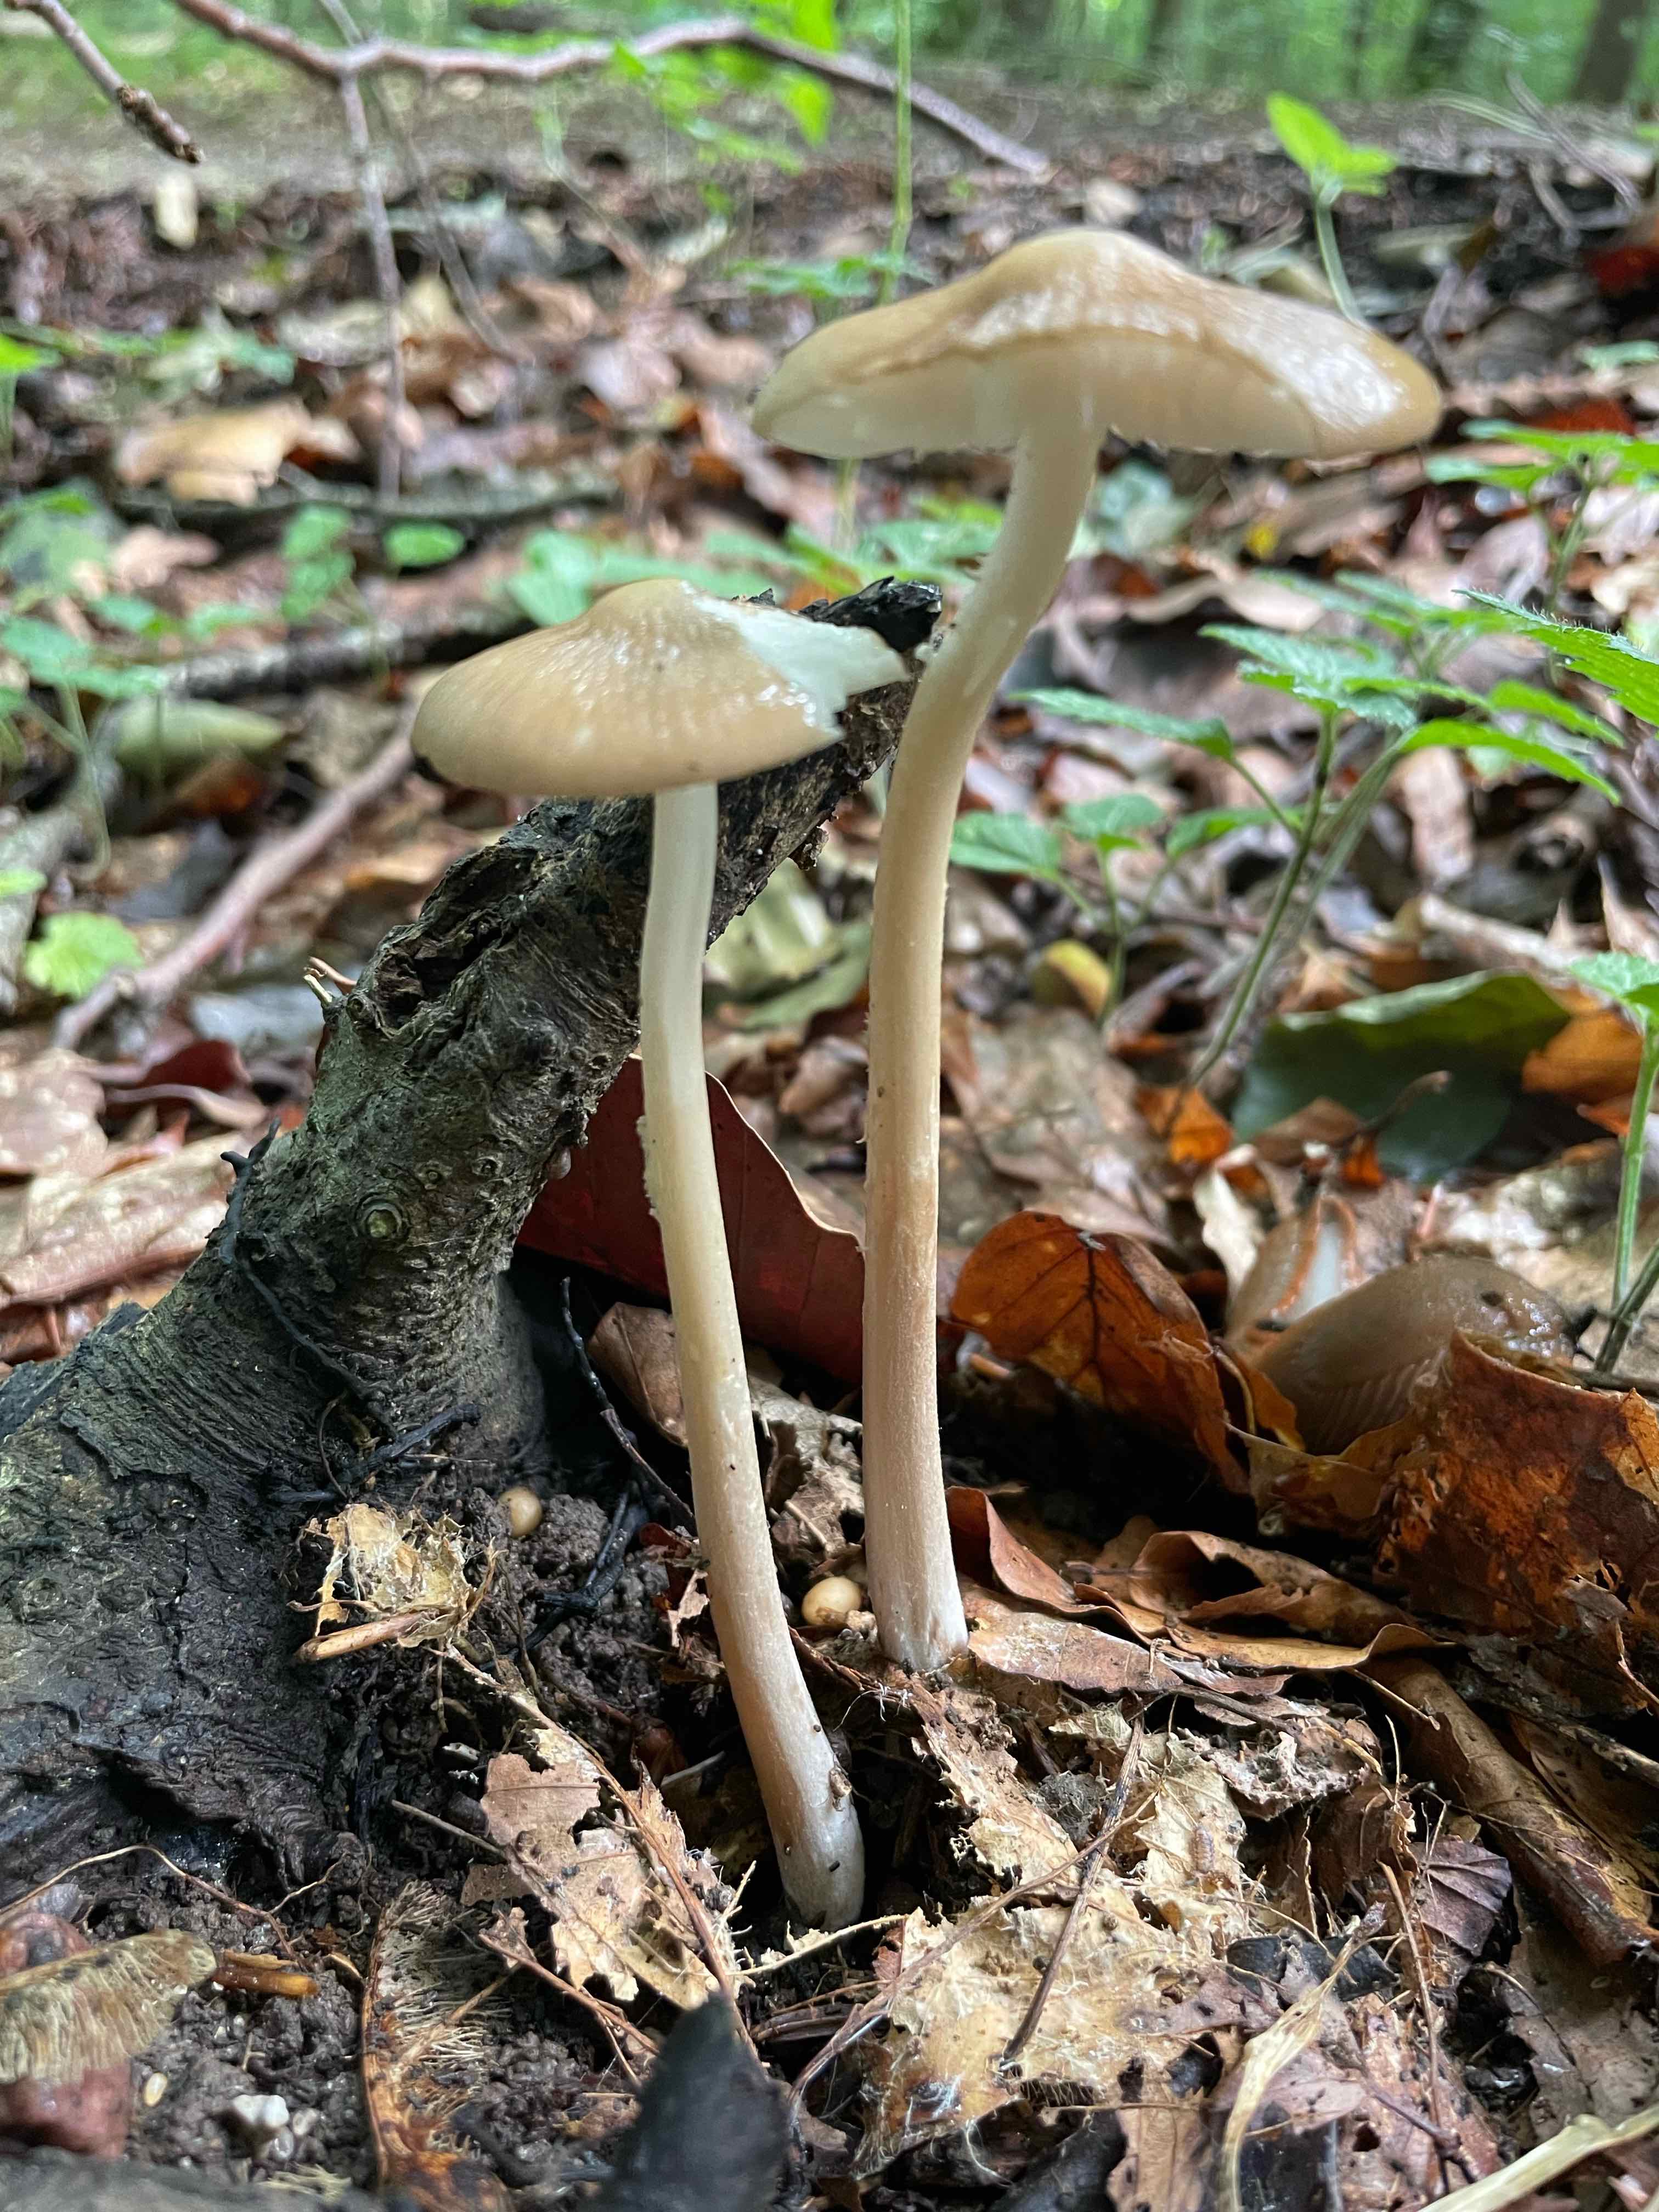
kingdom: Fungi
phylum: Basidiomycota
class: Agaricomycetes
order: Agaricales
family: Physalacriaceae
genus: Hymenopellis
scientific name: Hymenopellis radicata
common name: almindelig pælerodshat
